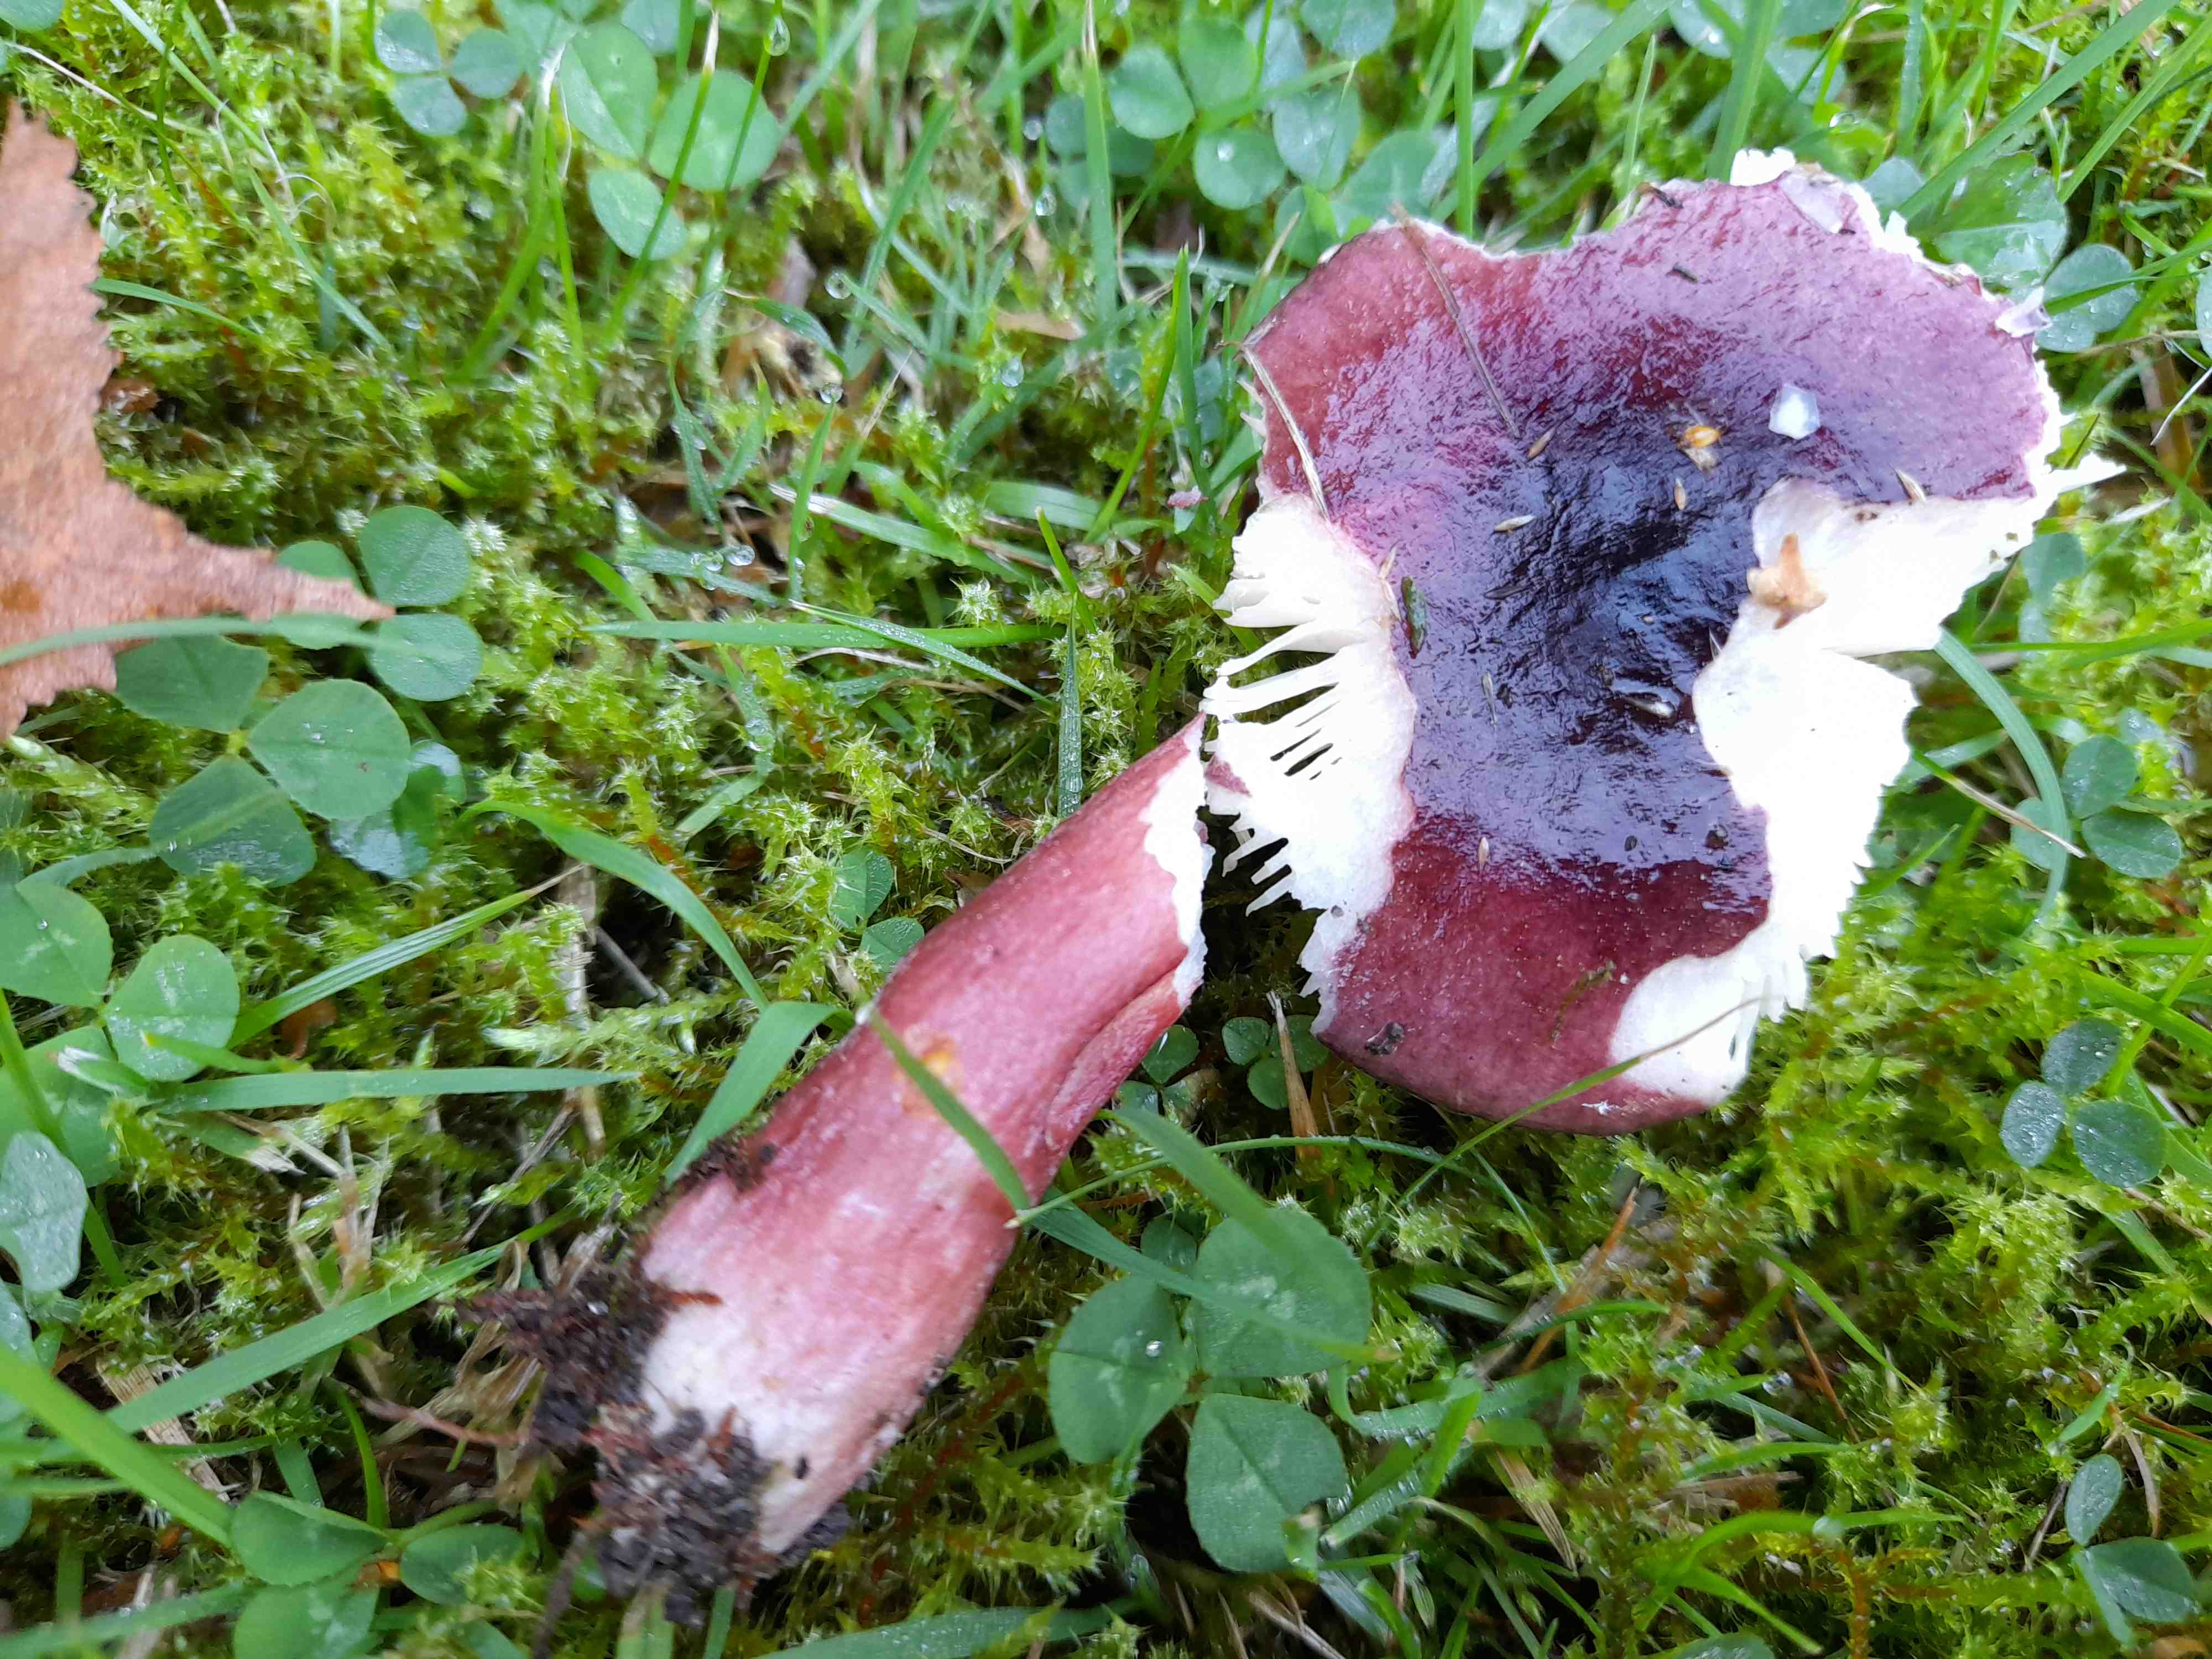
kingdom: Fungi
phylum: Basidiomycota
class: Agaricomycetes
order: Russulales
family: Russulaceae
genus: Russula
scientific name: Russula queletii
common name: Quélets skørhat
